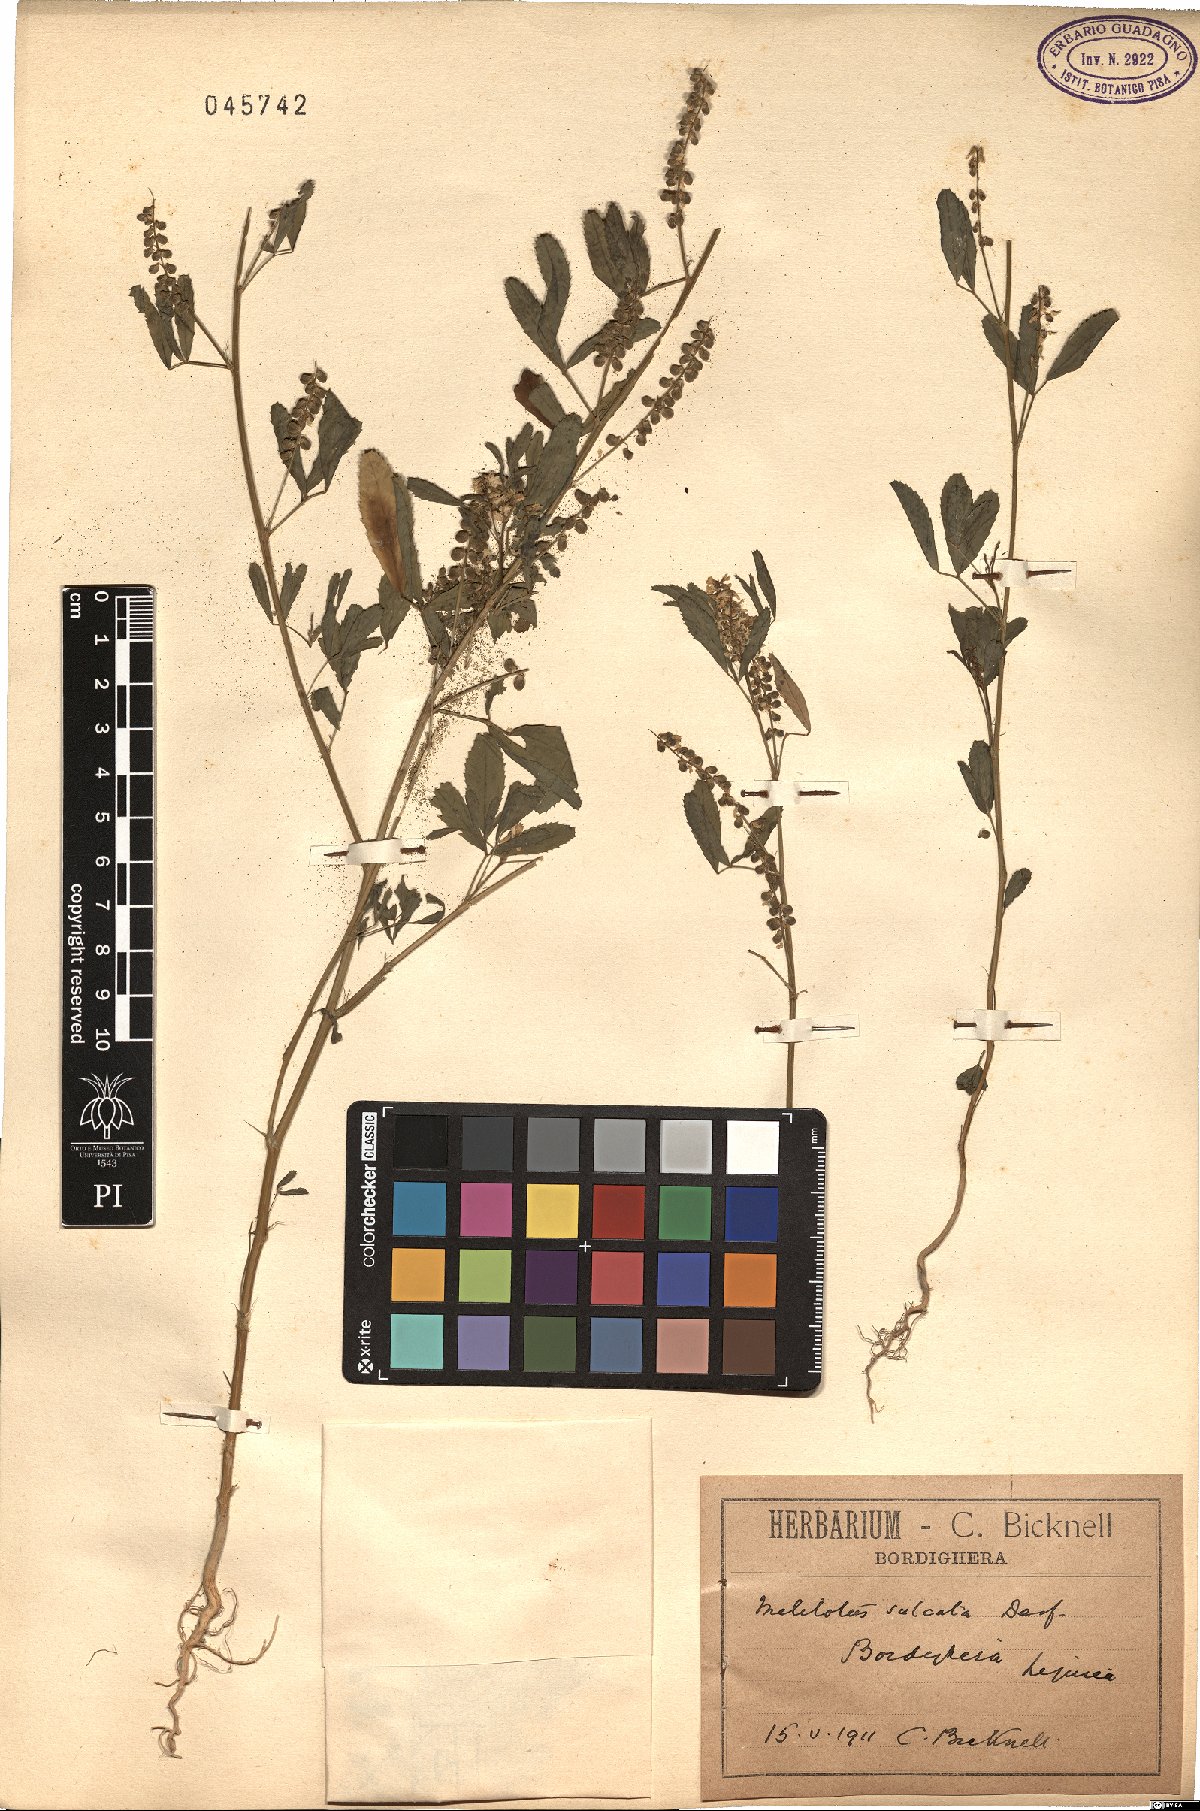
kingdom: Plantae
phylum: Tracheophyta
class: Magnoliopsida
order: Fabales
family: Fabaceae
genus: Melilotus
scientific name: Melilotus sulcatus
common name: Furrowed melilot
